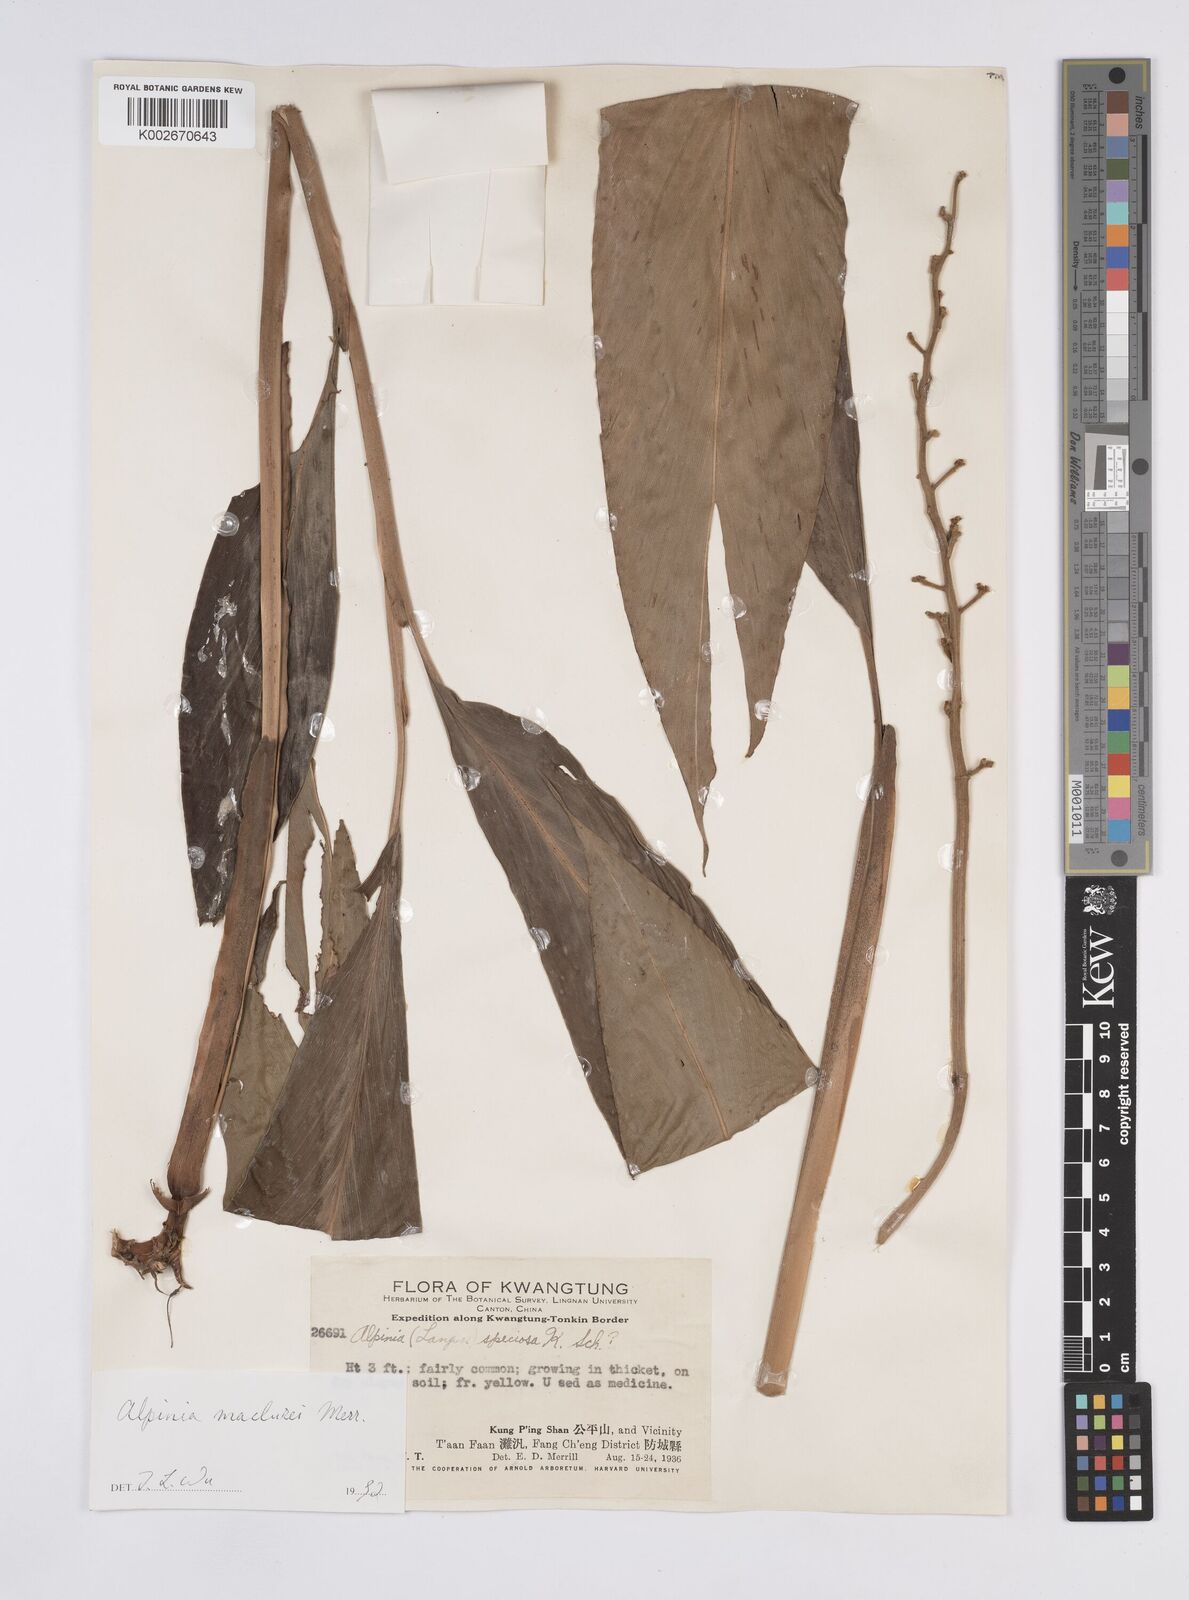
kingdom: Plantae
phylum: Tracheophyta
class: Liliopsida
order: Zingiberales
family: Zingiberaceae
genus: Alpinia
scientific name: Alpinia maclurei
